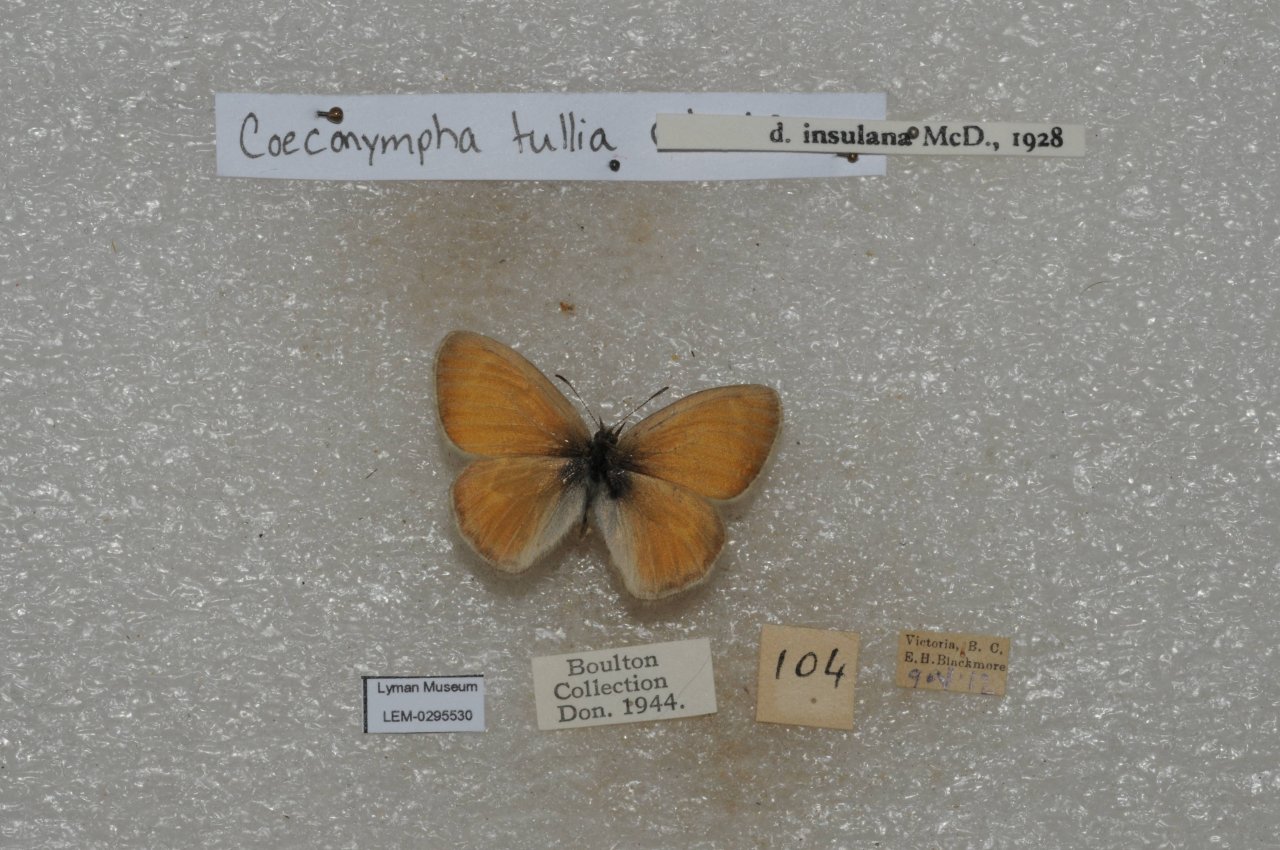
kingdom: Animalia
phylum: Arthropoda
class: Insecta
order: Lepidoptera
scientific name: Lepidoptera
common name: Butterflies
